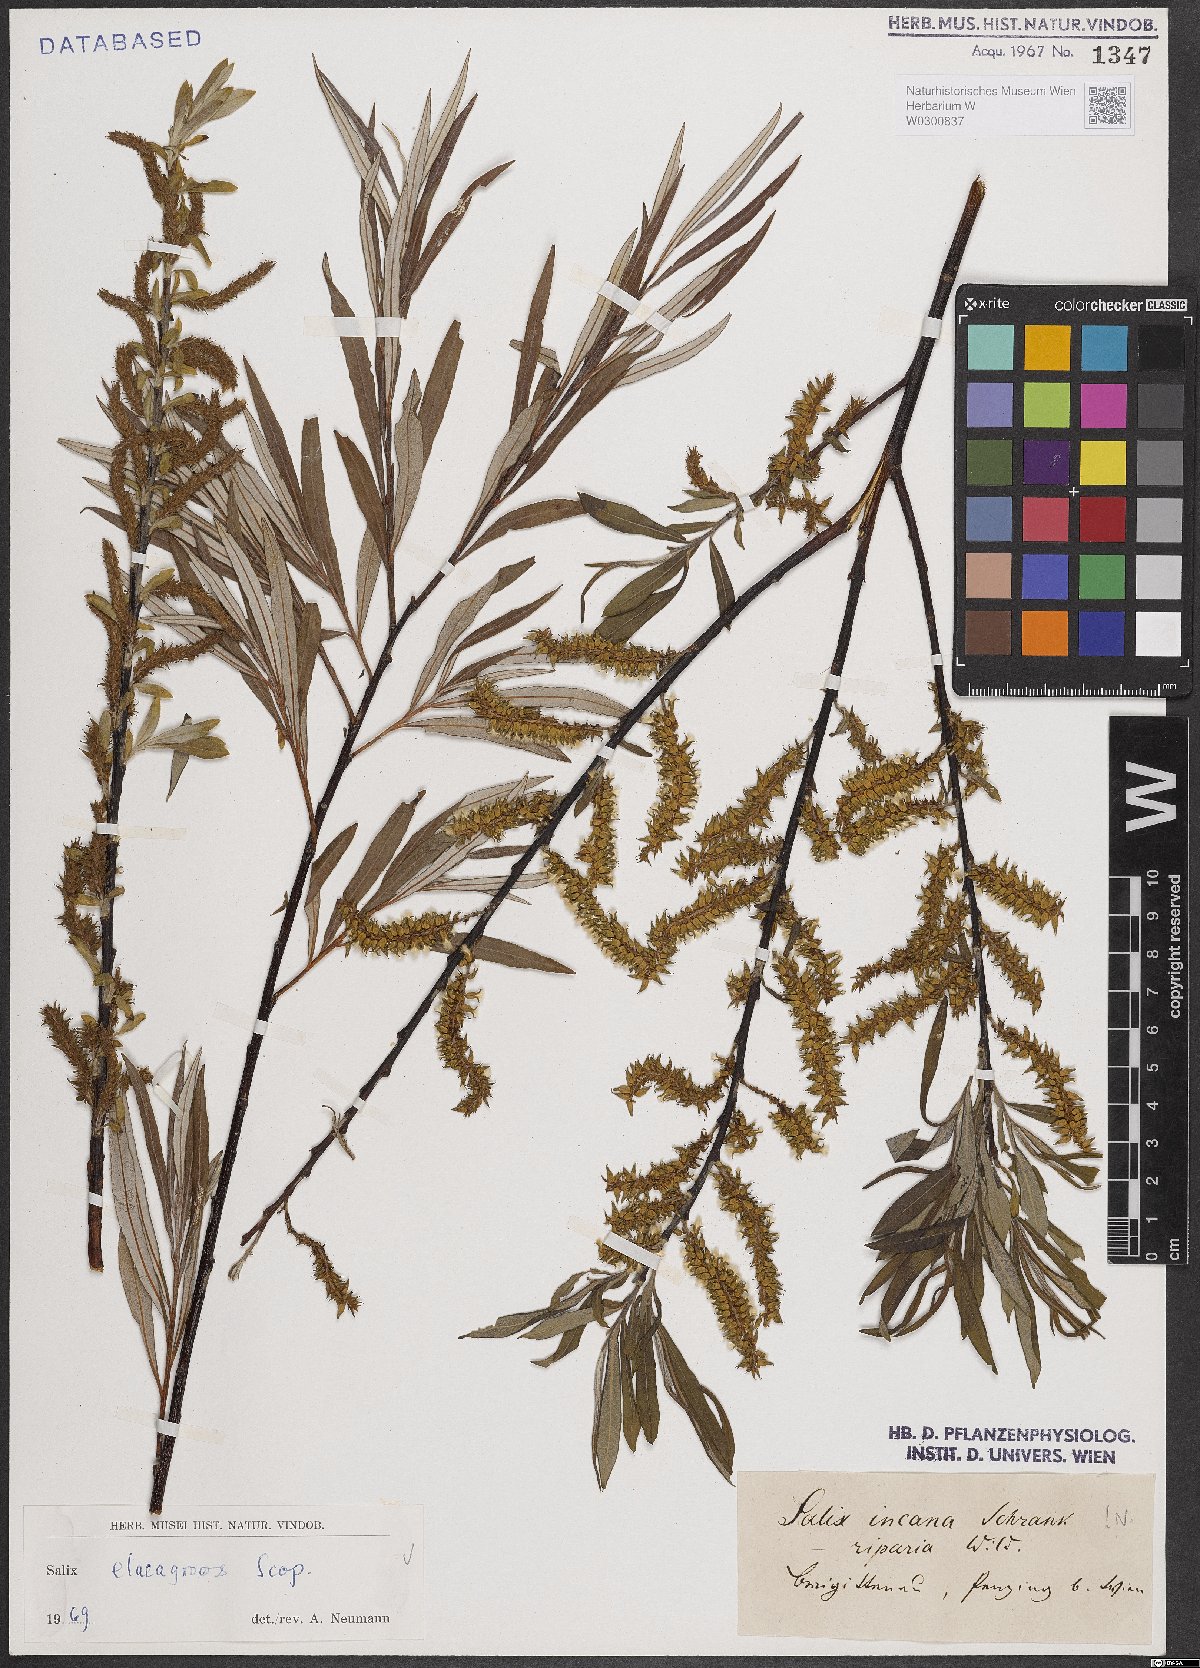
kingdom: Plantae
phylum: Tracheophyta
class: Magnoliopsida
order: Malpighiales
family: Salicaceae
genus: Salix
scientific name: Salix eleagnos
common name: Elaeagnus willow
